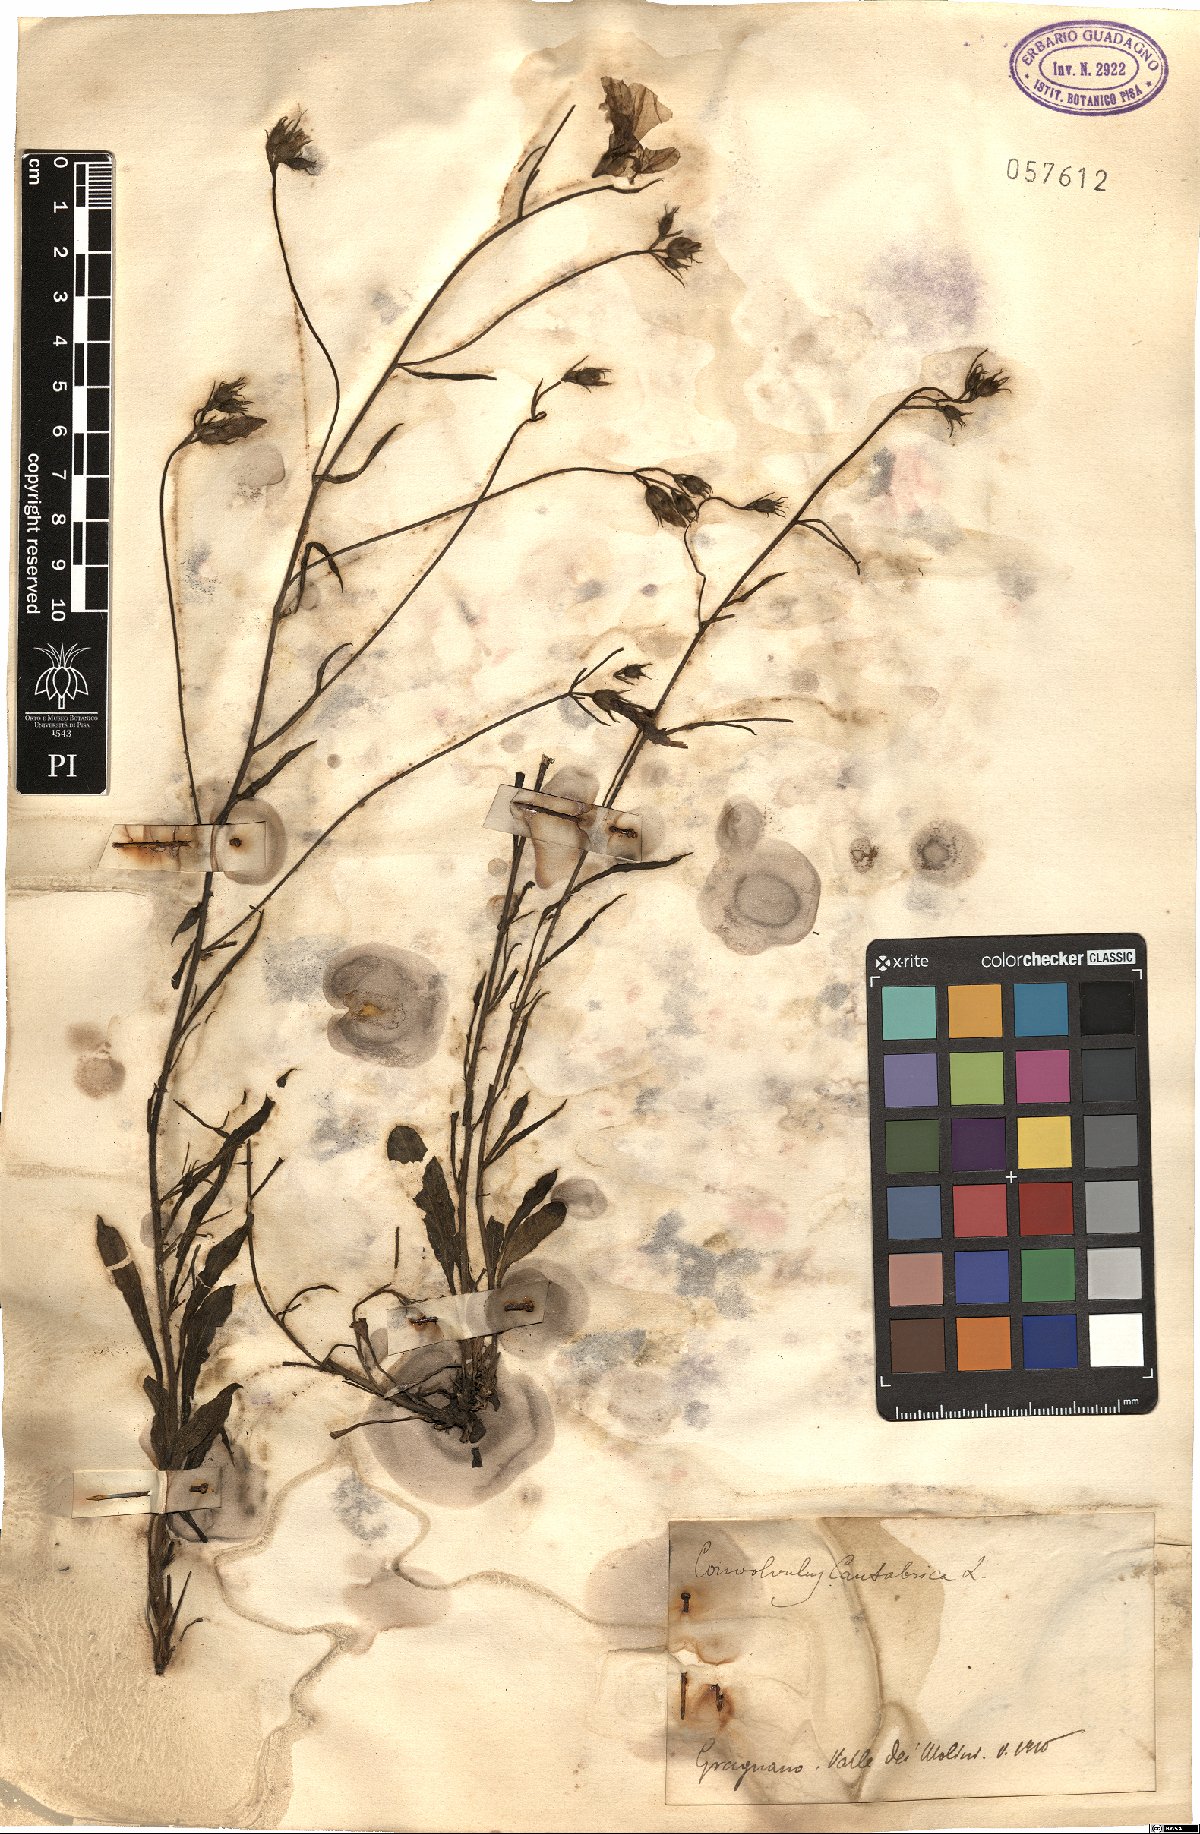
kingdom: Plantae
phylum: Tracheophyta
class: Magnoliopsida
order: Solanales
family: Convolvulaceae
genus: Convolvulus
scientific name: Convolvulus cantabrica
